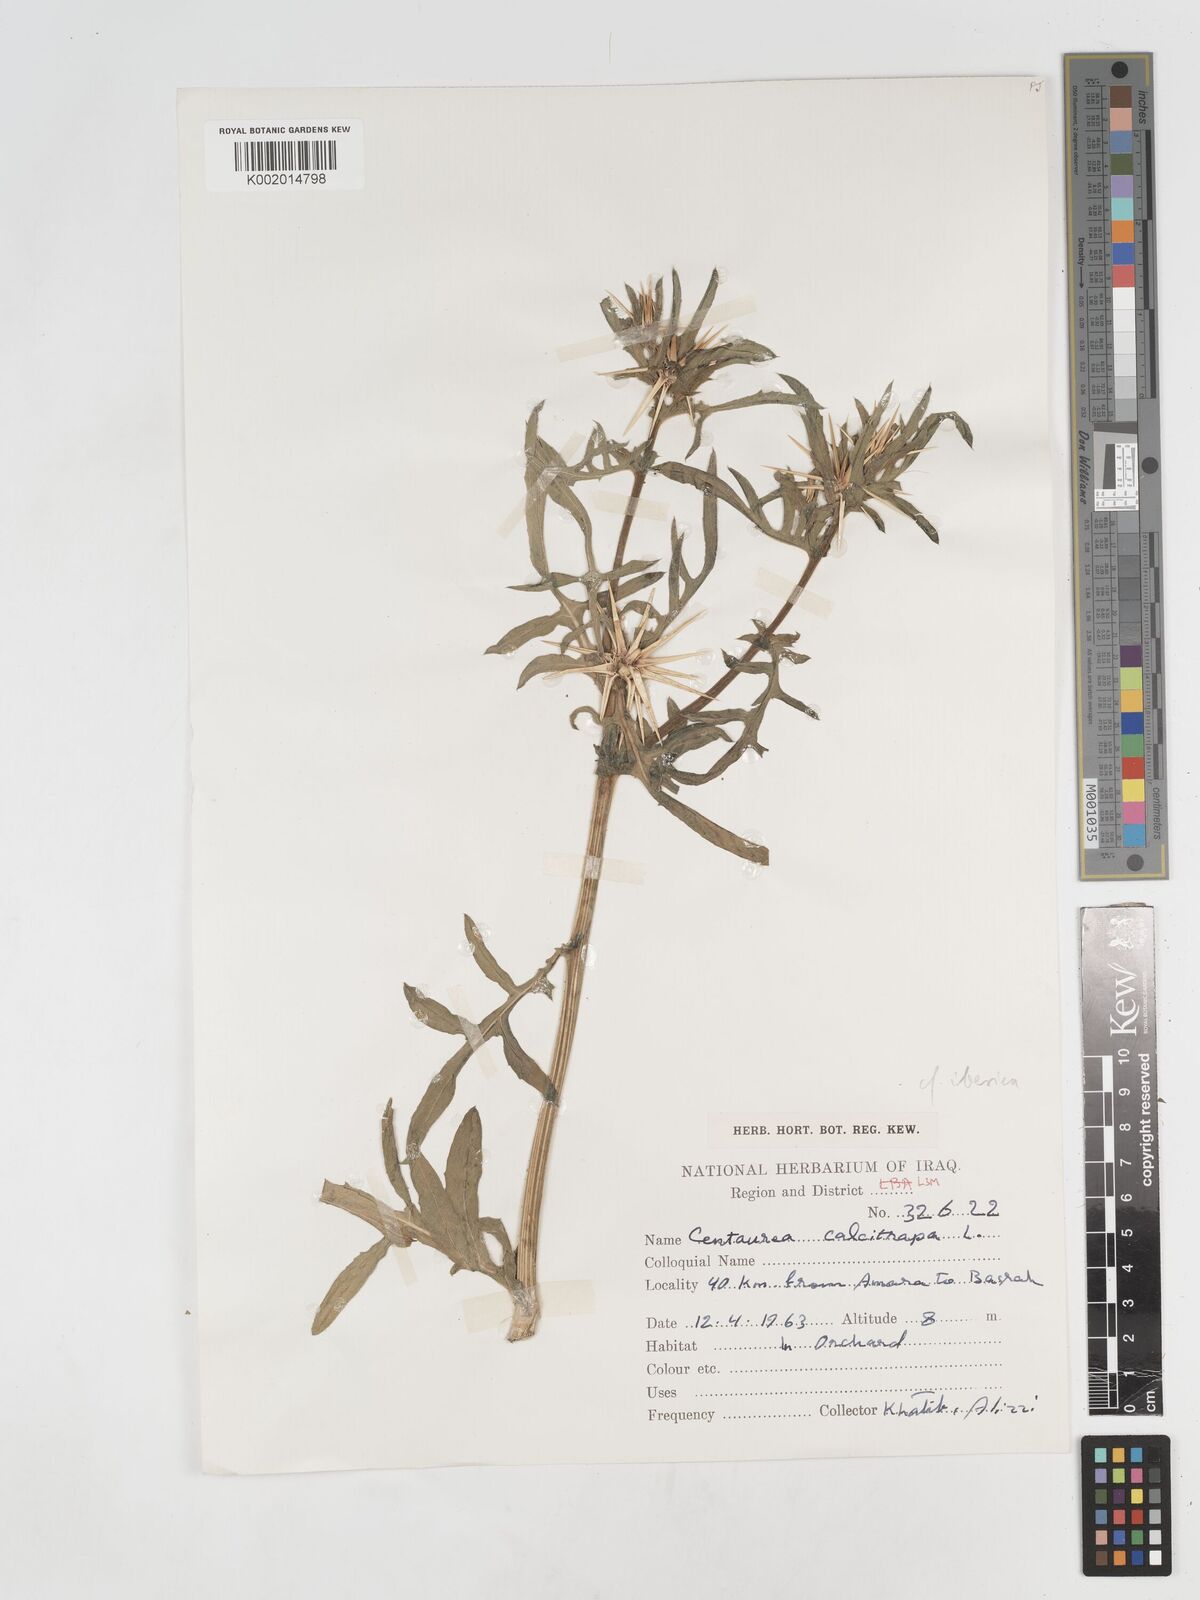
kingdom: Plantae
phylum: Tracheophyta
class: Magnoliopsida
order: Asterales
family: Asteraceae
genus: Centaurea
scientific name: Centaurea iberica
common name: Iberian knapweed
